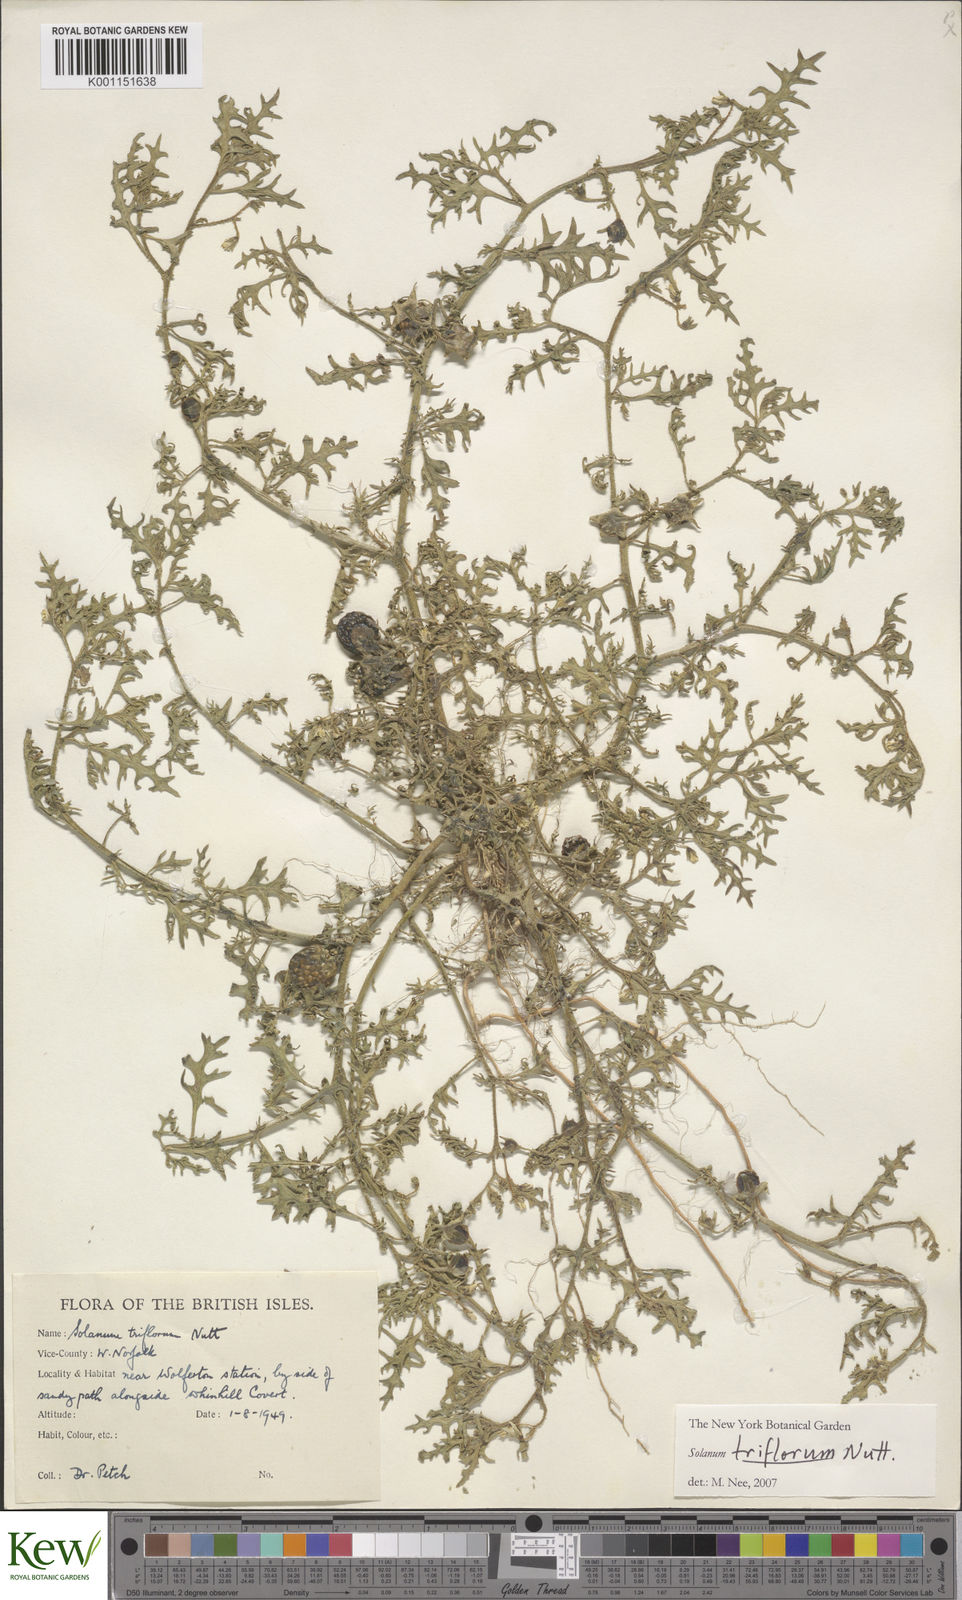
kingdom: Plantae
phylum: Tracheophyta
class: Magnoliopsida
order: Solanales
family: Solanaceae
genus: Solanum
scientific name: Solanum triflorum
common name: Small nightshade
